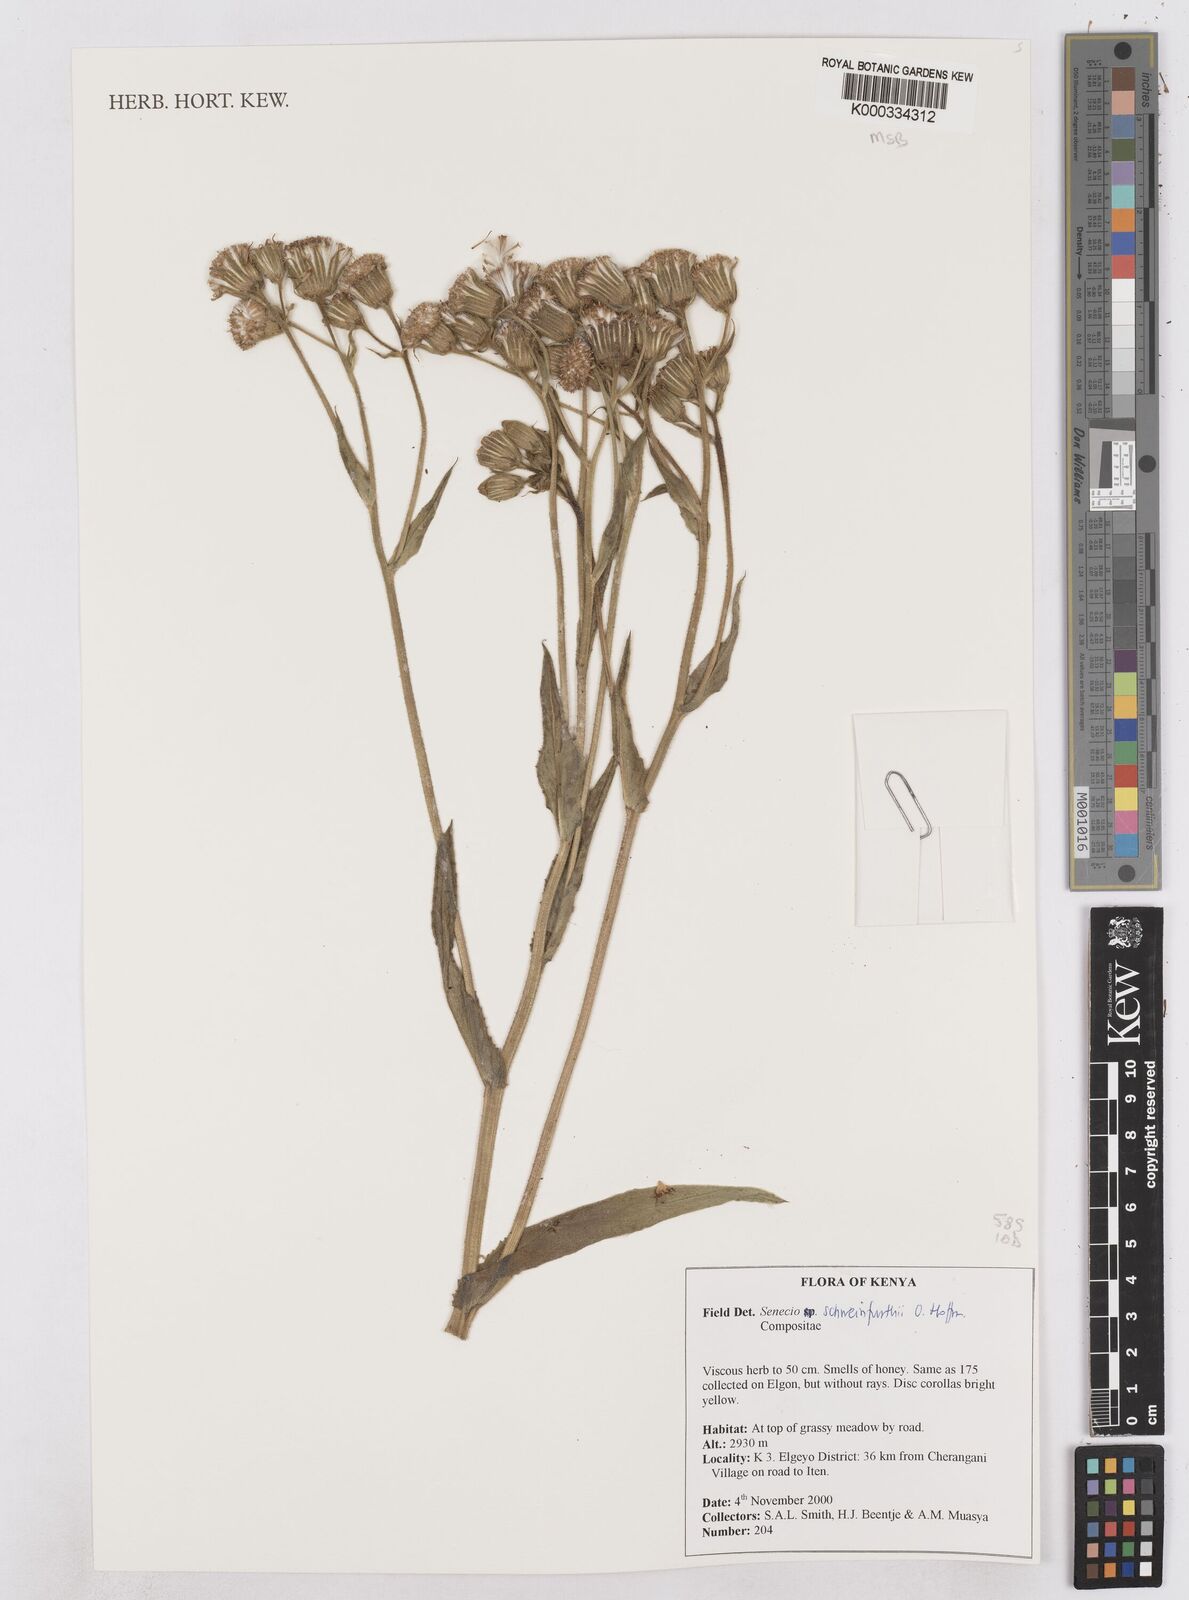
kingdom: Plantae
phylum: Tracheophyta
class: Magnoliopsida
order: Asterales
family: Asteraceae
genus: Senecio
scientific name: Senecio schweinfurthii
